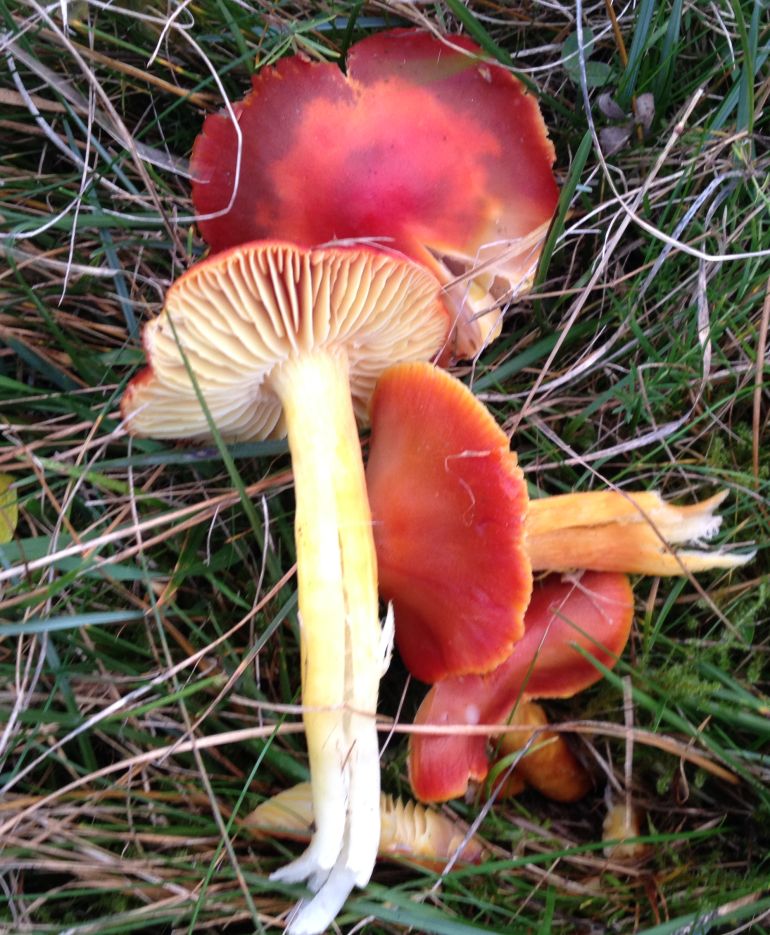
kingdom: Fungi
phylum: Basidiomycota
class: Agaricomycetes
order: Agaricales
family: Hygrophoraceae
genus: Hygrocybe
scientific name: Hygrocybe punicea
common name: skarlagen-vokshat
